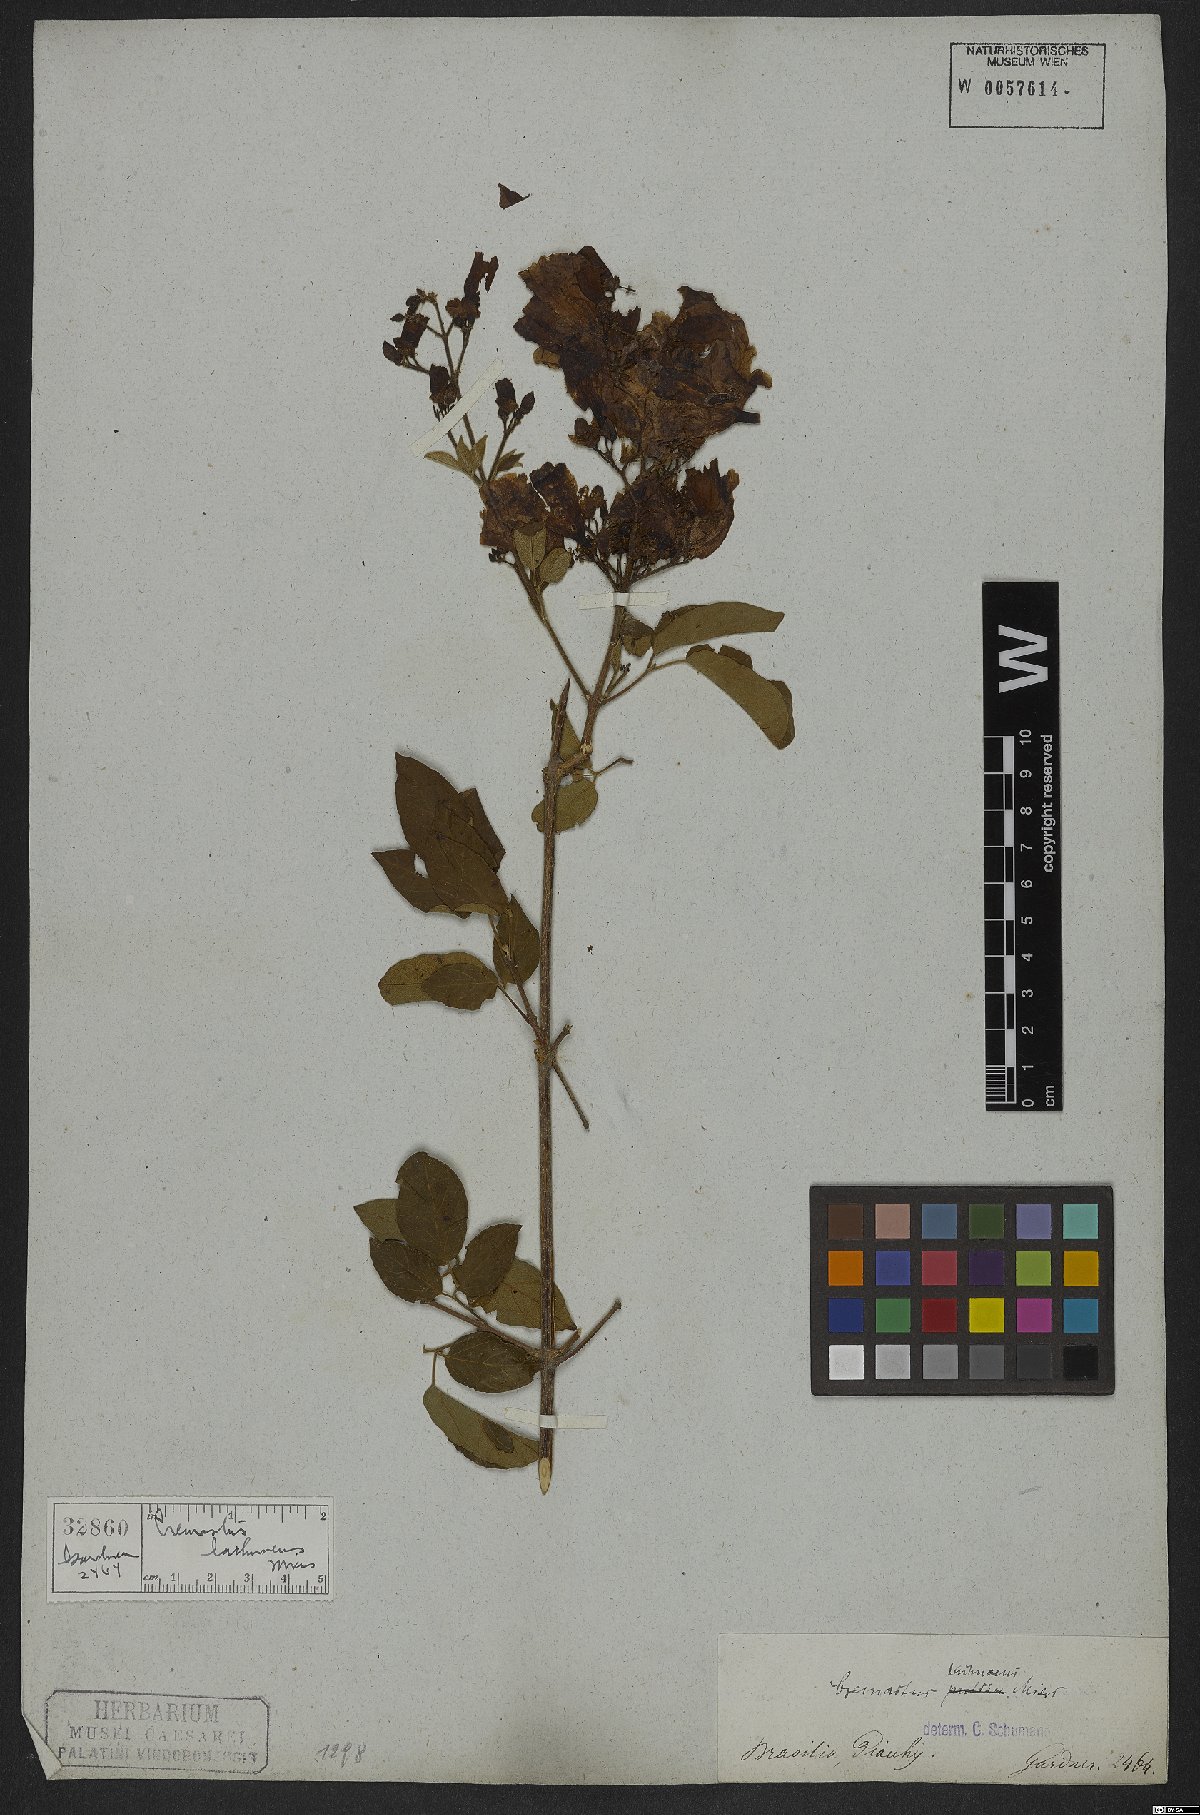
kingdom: Plantae
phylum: Tracheophyta
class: Magnoliopsida
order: Lamiales
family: Bignoniaceae
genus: Cuspidaria
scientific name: Cuspidaria lachnaea
